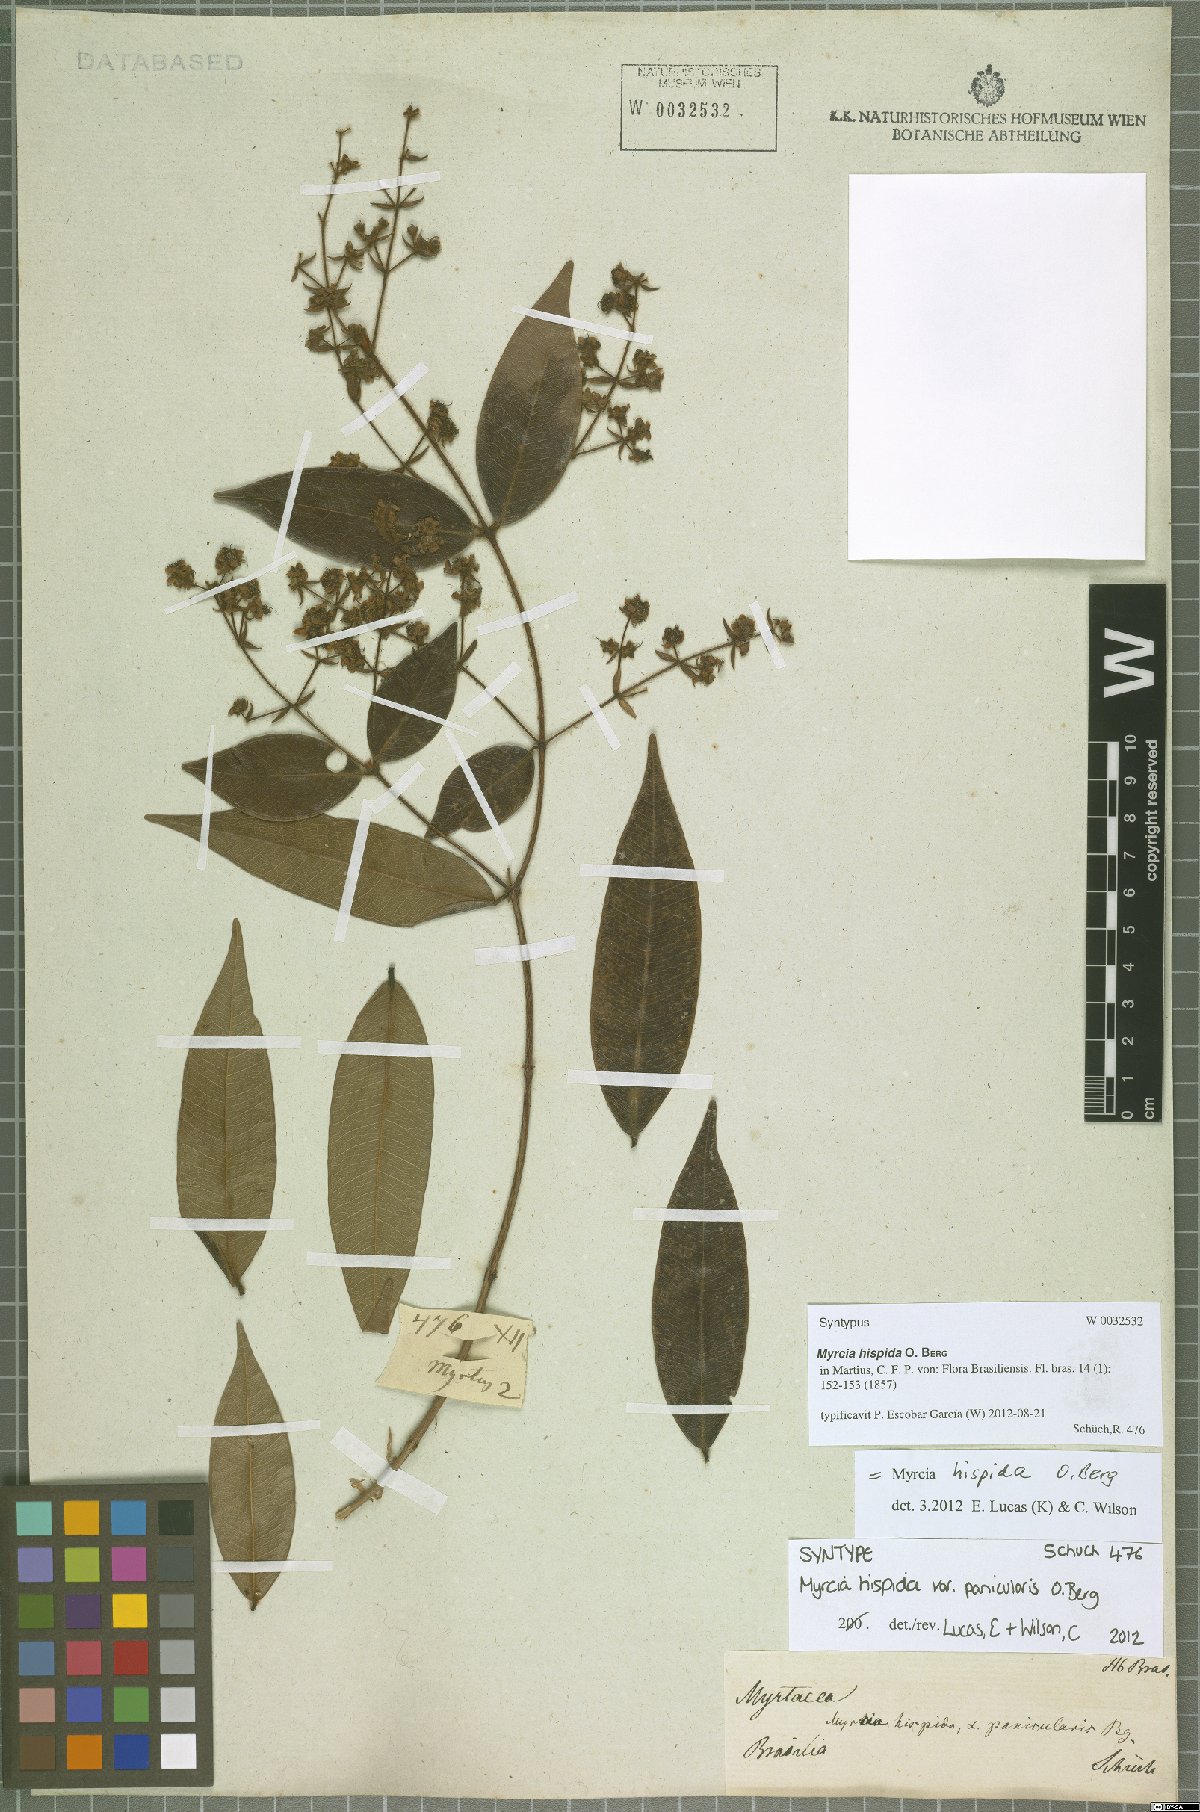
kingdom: Plantae
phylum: Tracheophyta
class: Magnoliopsida
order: Myrtales
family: Myrtaceae
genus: Myrcia
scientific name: Myrcia hispida
